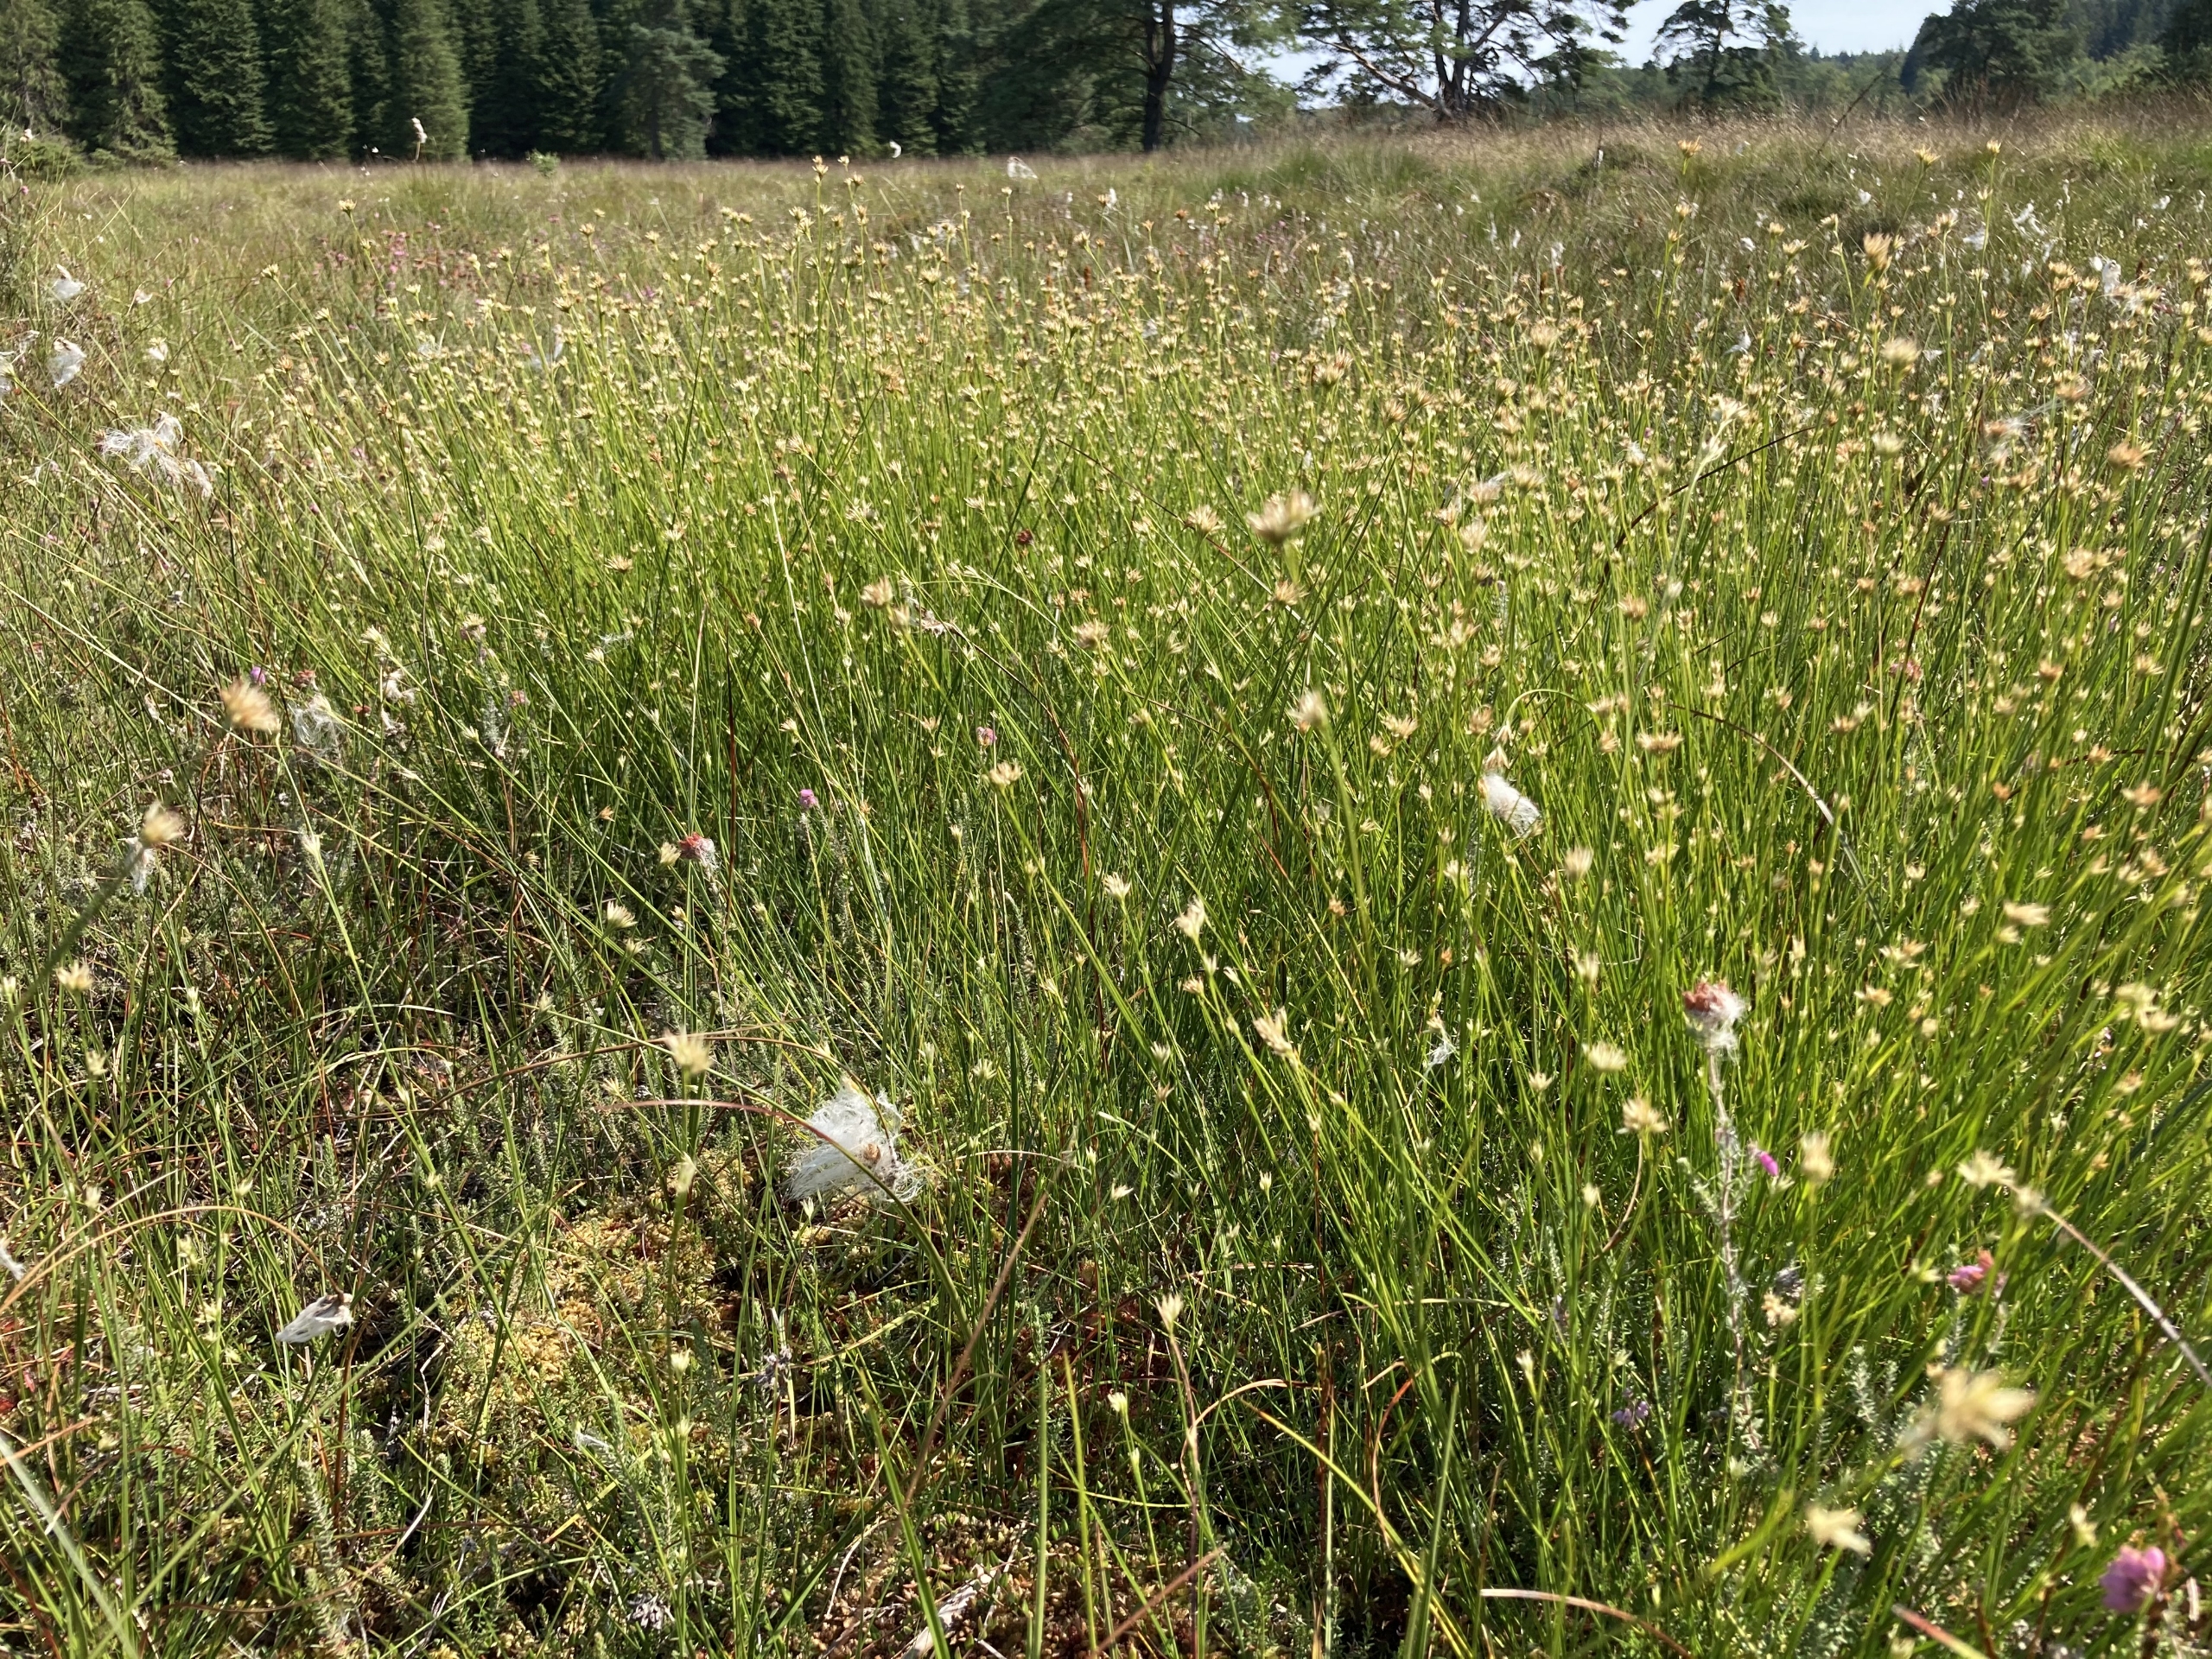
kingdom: Plantae
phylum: Tracheophyta
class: Liliopsida
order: Poales
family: Cyperaceae
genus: Rhynchospora
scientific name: Rhynchospora alba
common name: Hvid næbfrø
